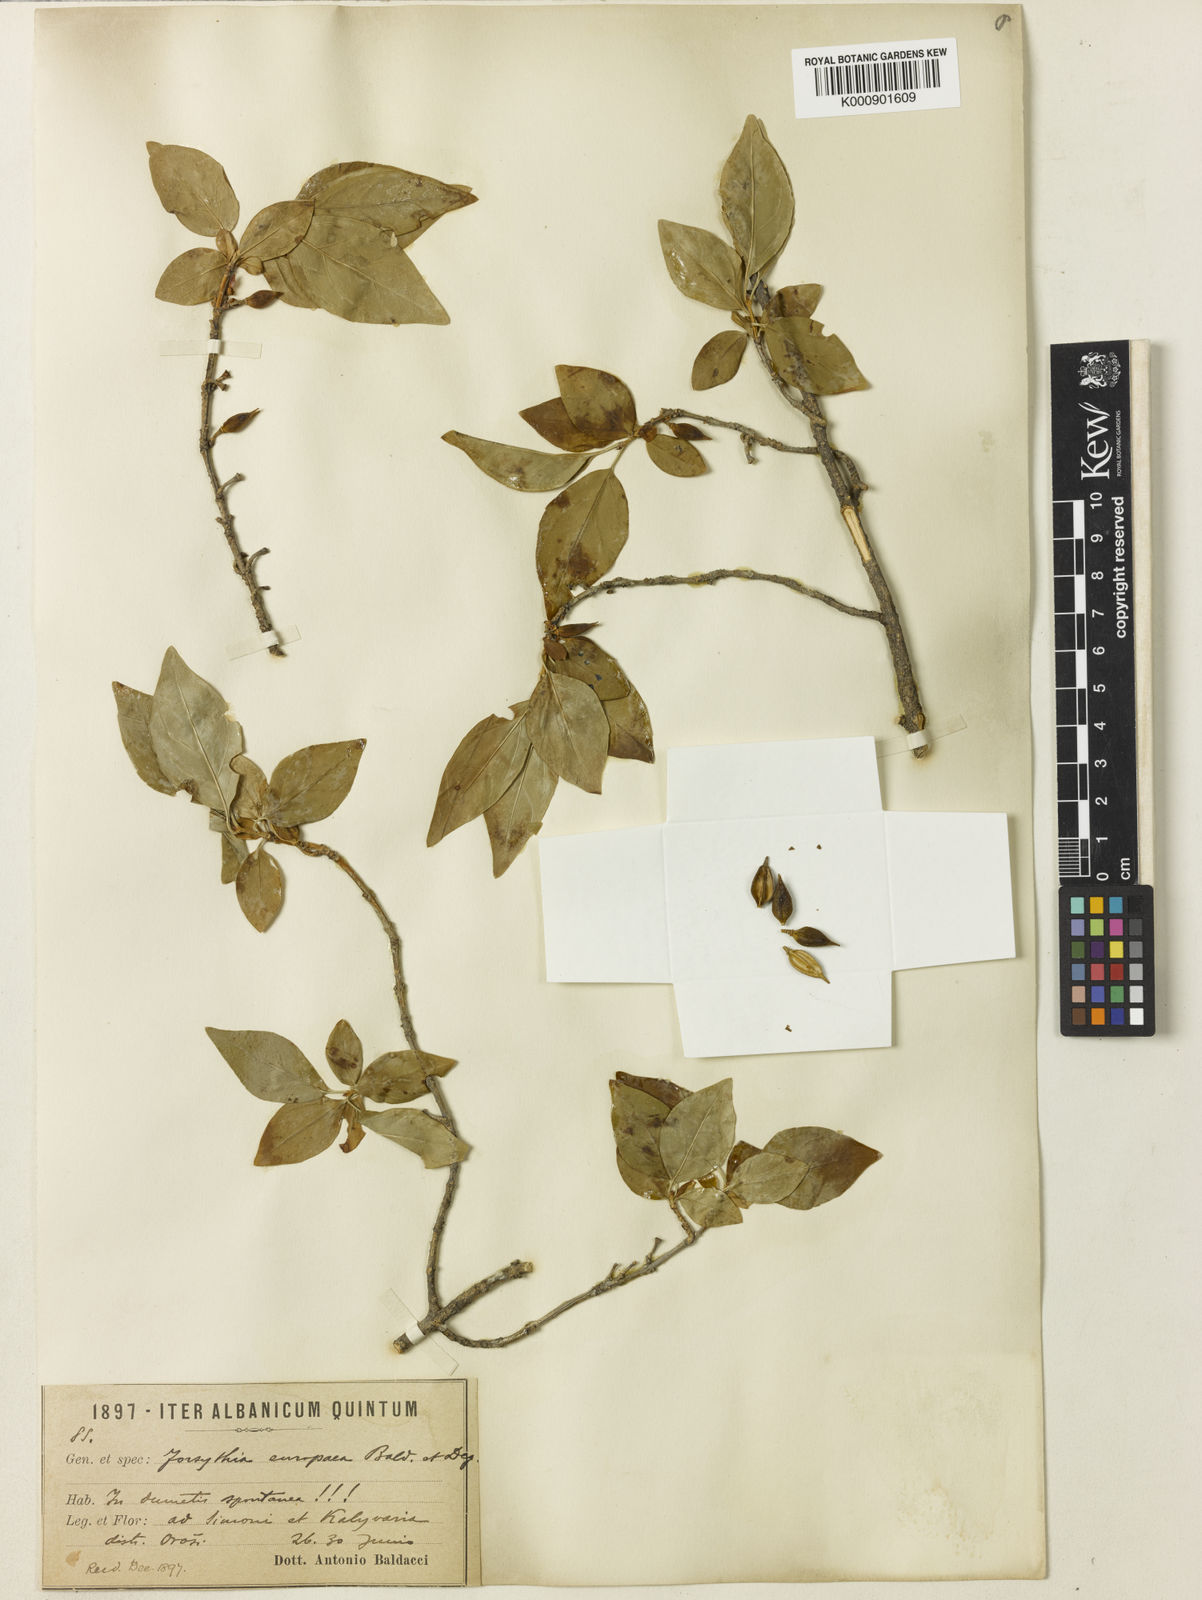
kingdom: Plantae
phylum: Tracheophyta
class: Magnoliopsida
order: Lamiales
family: Oleaceae
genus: Forsythia
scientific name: Forsythia europaea
